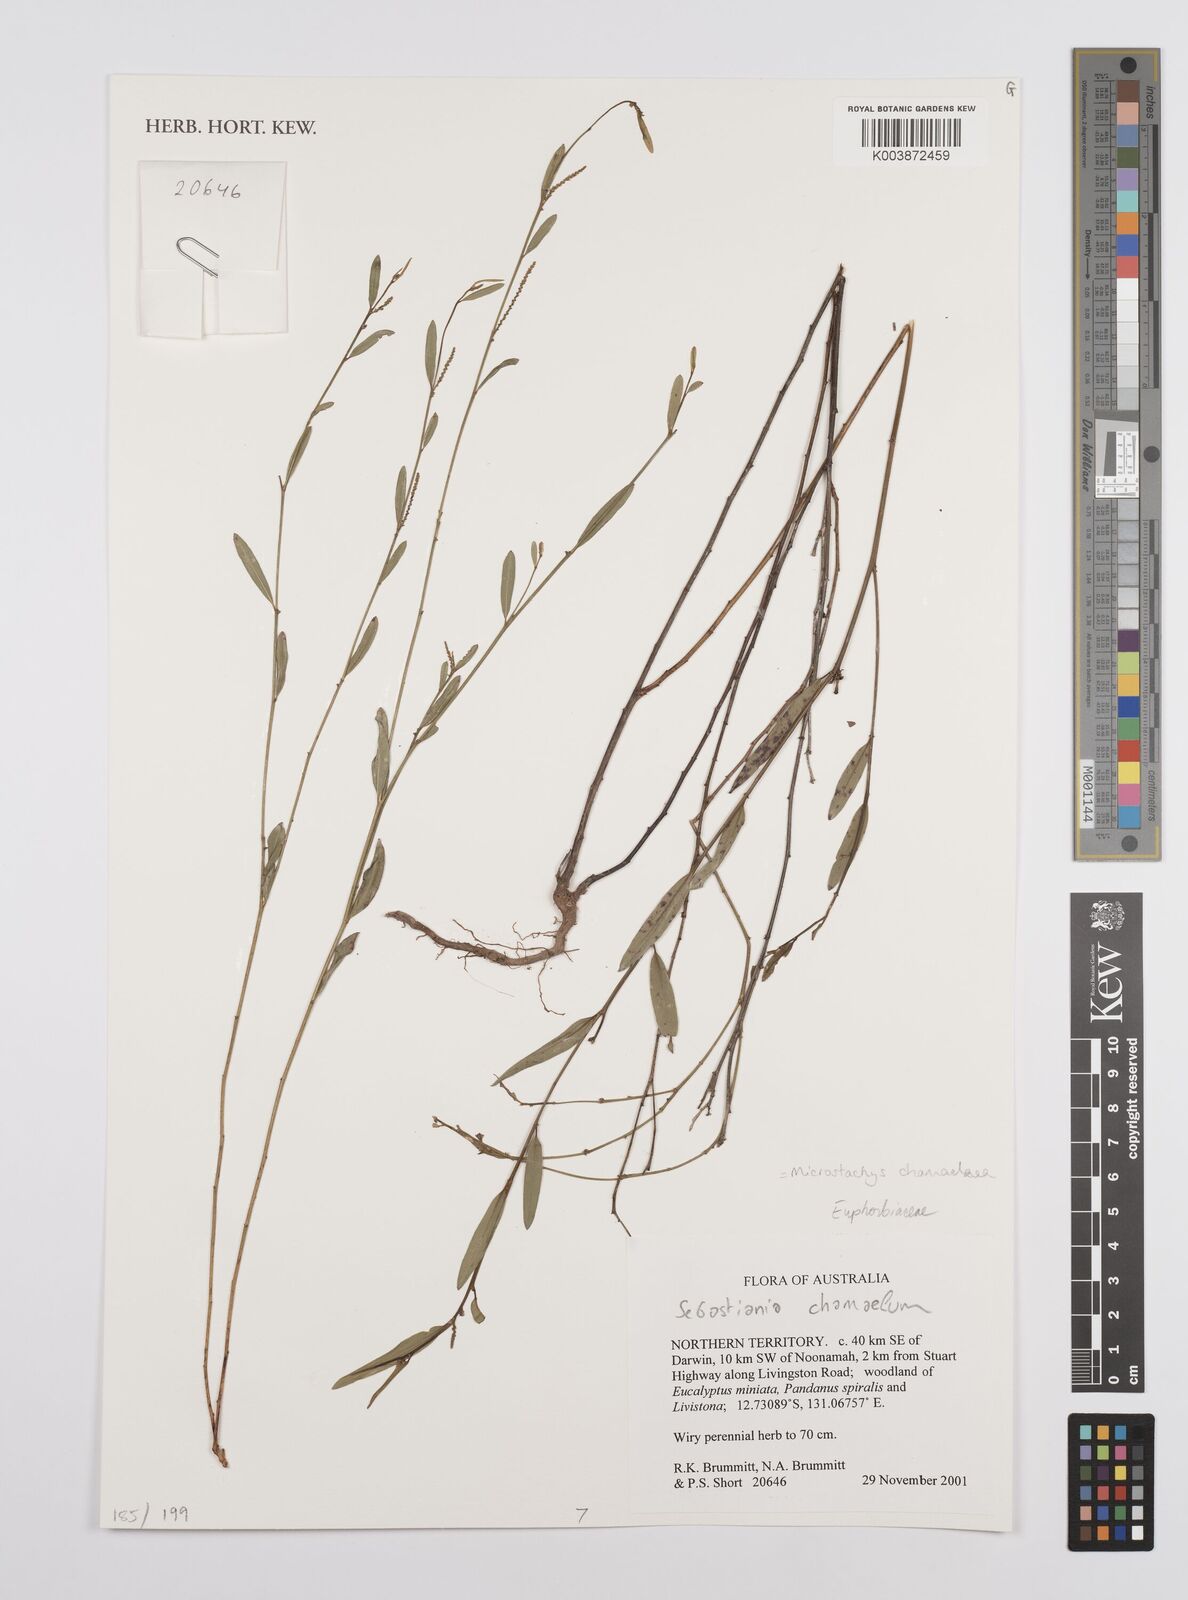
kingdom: Plantae
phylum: Tracheophyta
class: Magnoliopsida
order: Malpighiales
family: Euphorbiaceae
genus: Microstachys
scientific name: Microstachys chamaelea
